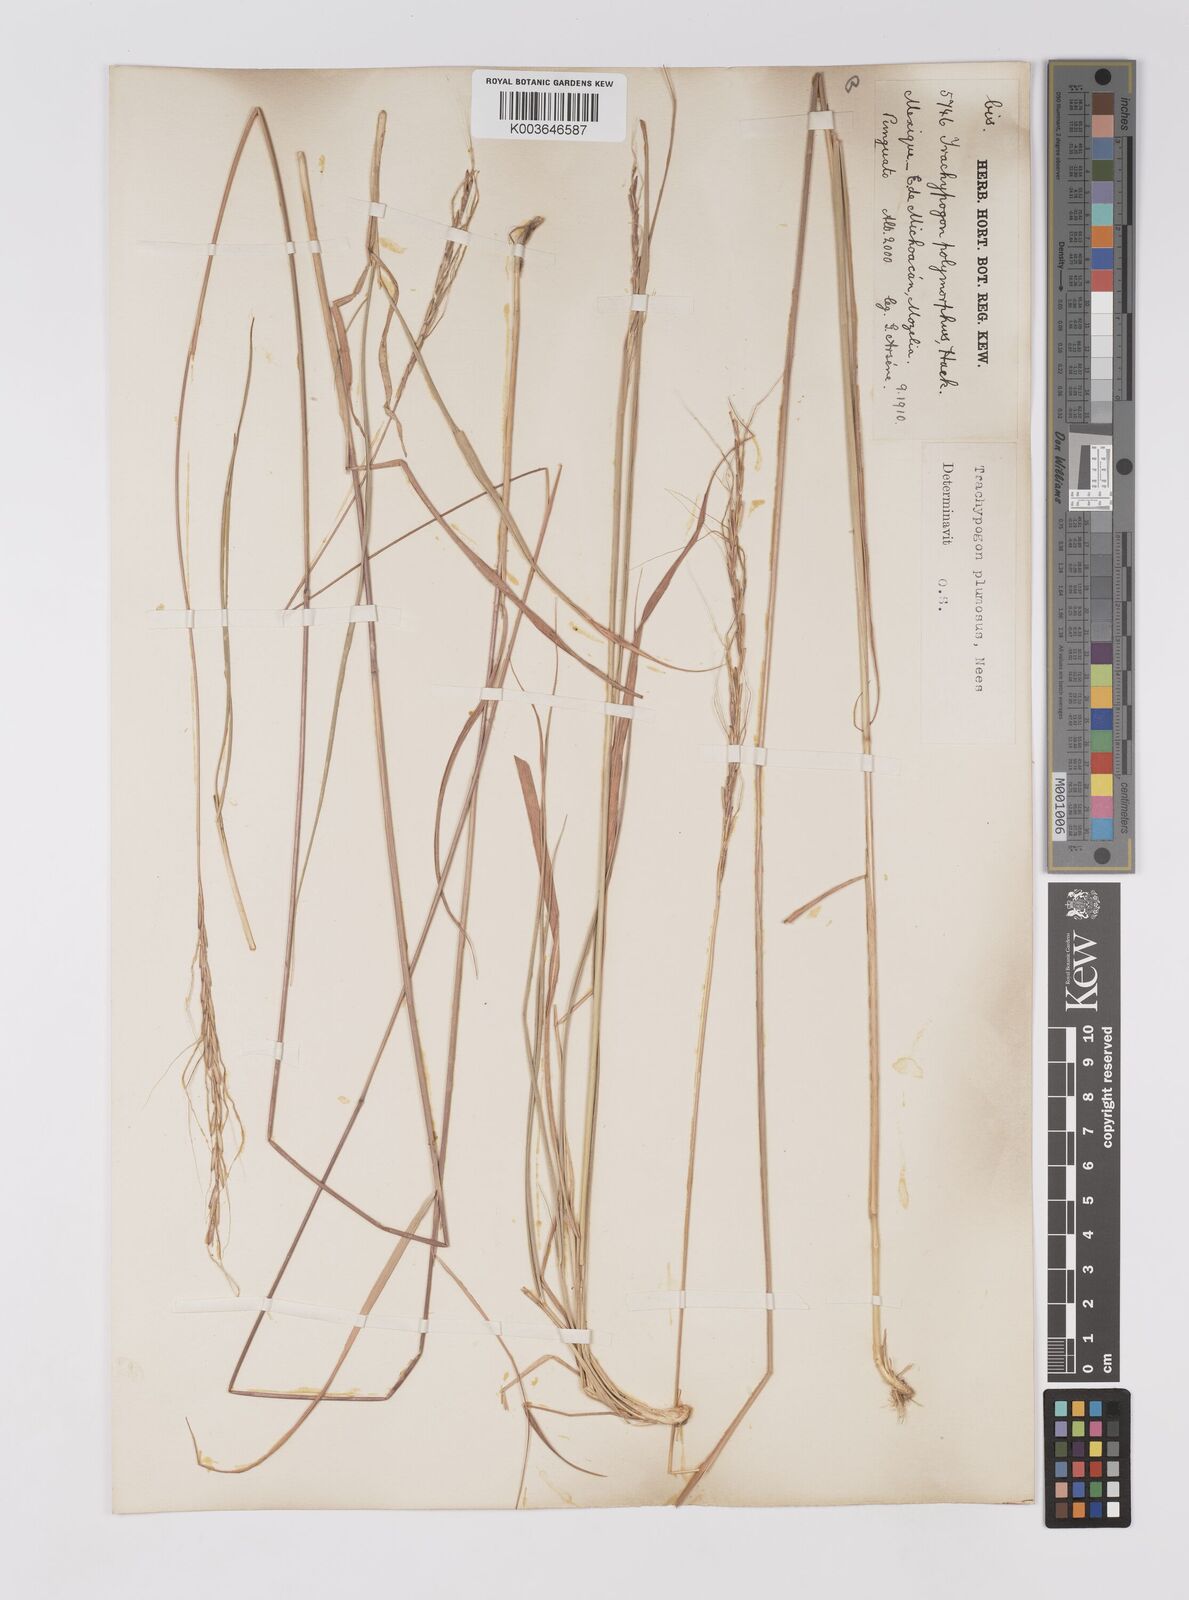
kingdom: Plantae
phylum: Tracheophyta
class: Liliopsida
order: Poales
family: Poaceae
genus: Trachypogon
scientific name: Trachypogon spicatus
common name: Crinkle-awn
